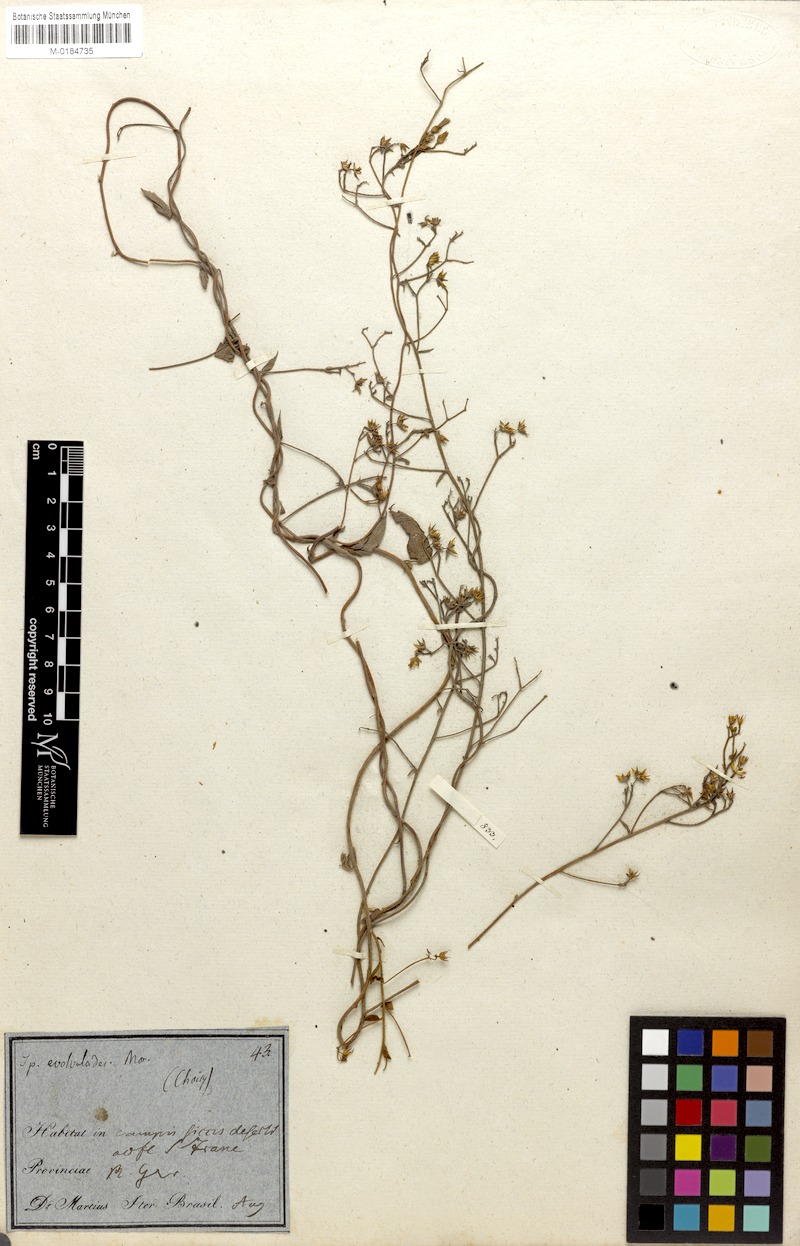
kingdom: Plantae
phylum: Tracheophyta
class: Magnoliopsida
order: Solanales
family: Convolvulaceae
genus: Jacquemontia
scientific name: Jacquemontia evolvuloides
